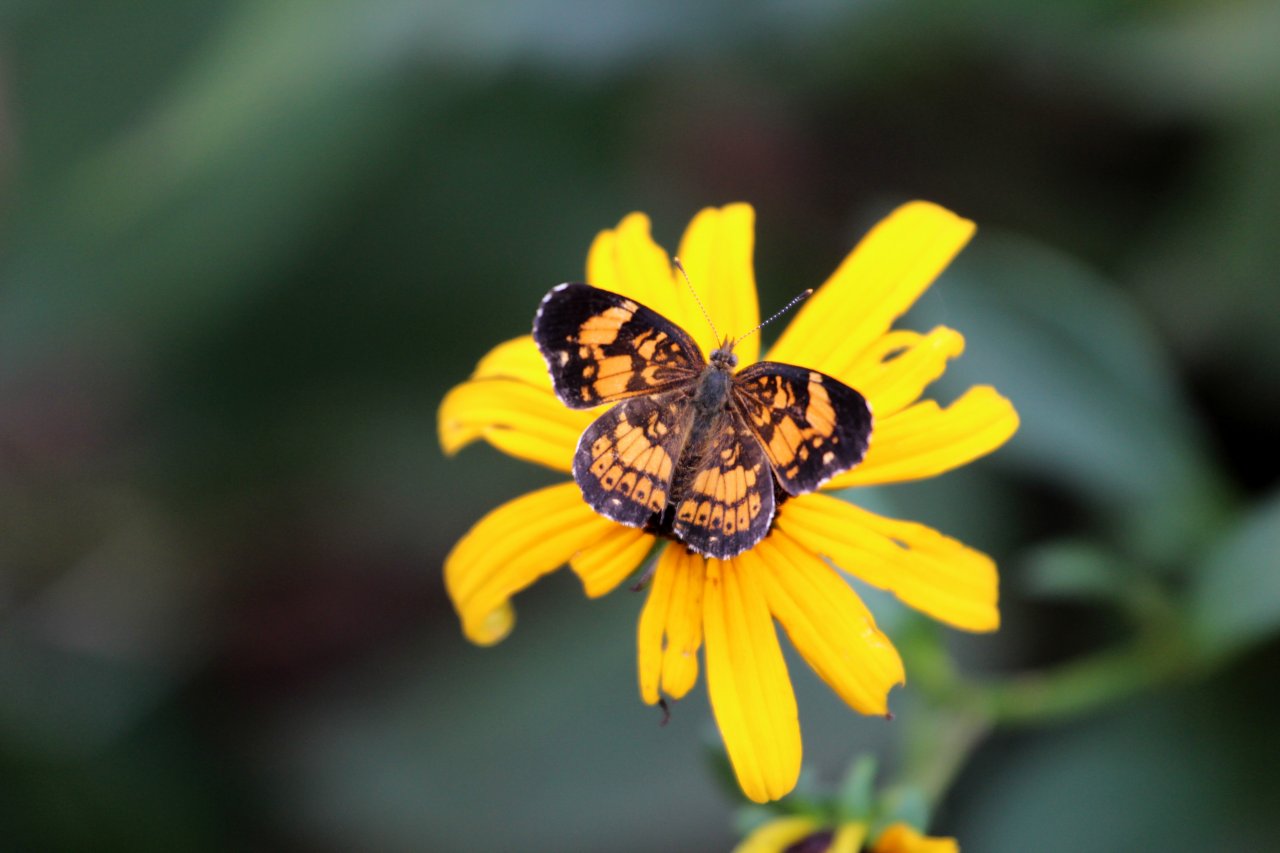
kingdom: Animalia
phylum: Arthropoda
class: Insecta
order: Lepidoptera
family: Nymphalidae
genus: Chlosyne
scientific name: Chlosyne nycteis
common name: Silvery Checkerspot
